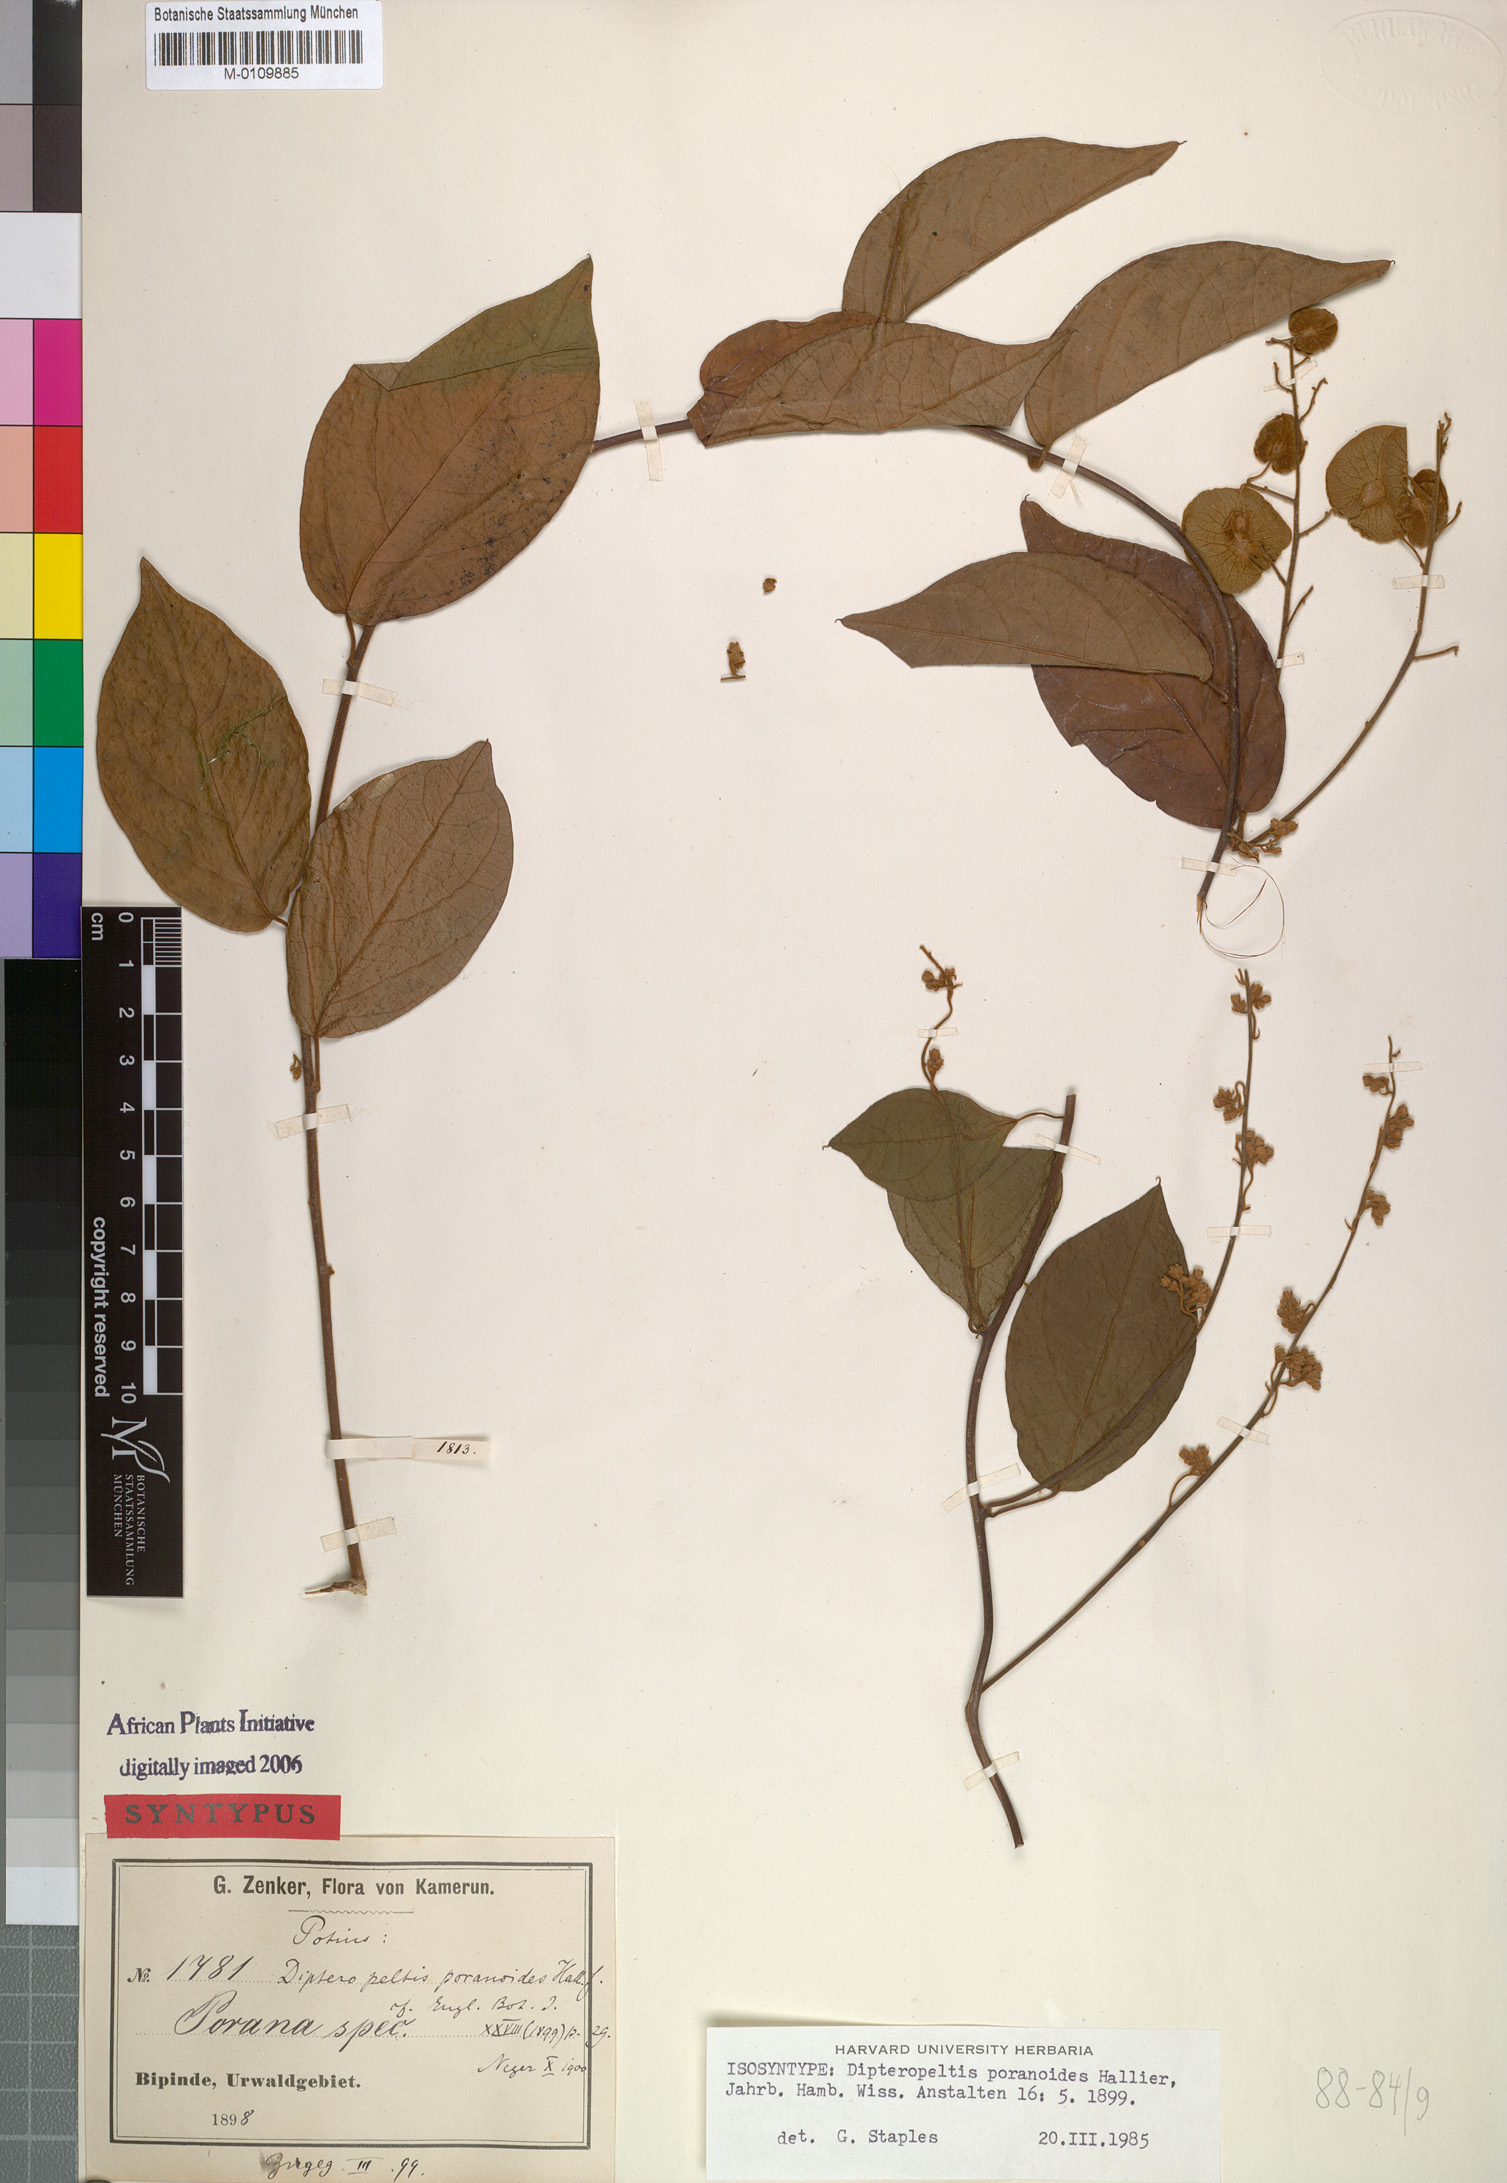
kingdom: Plantae
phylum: Tracheophyta
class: Magnoliopsida
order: Solanales
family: Convolvulaceae
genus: Dipteropeltis
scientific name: Dipteropeltis poranoides
